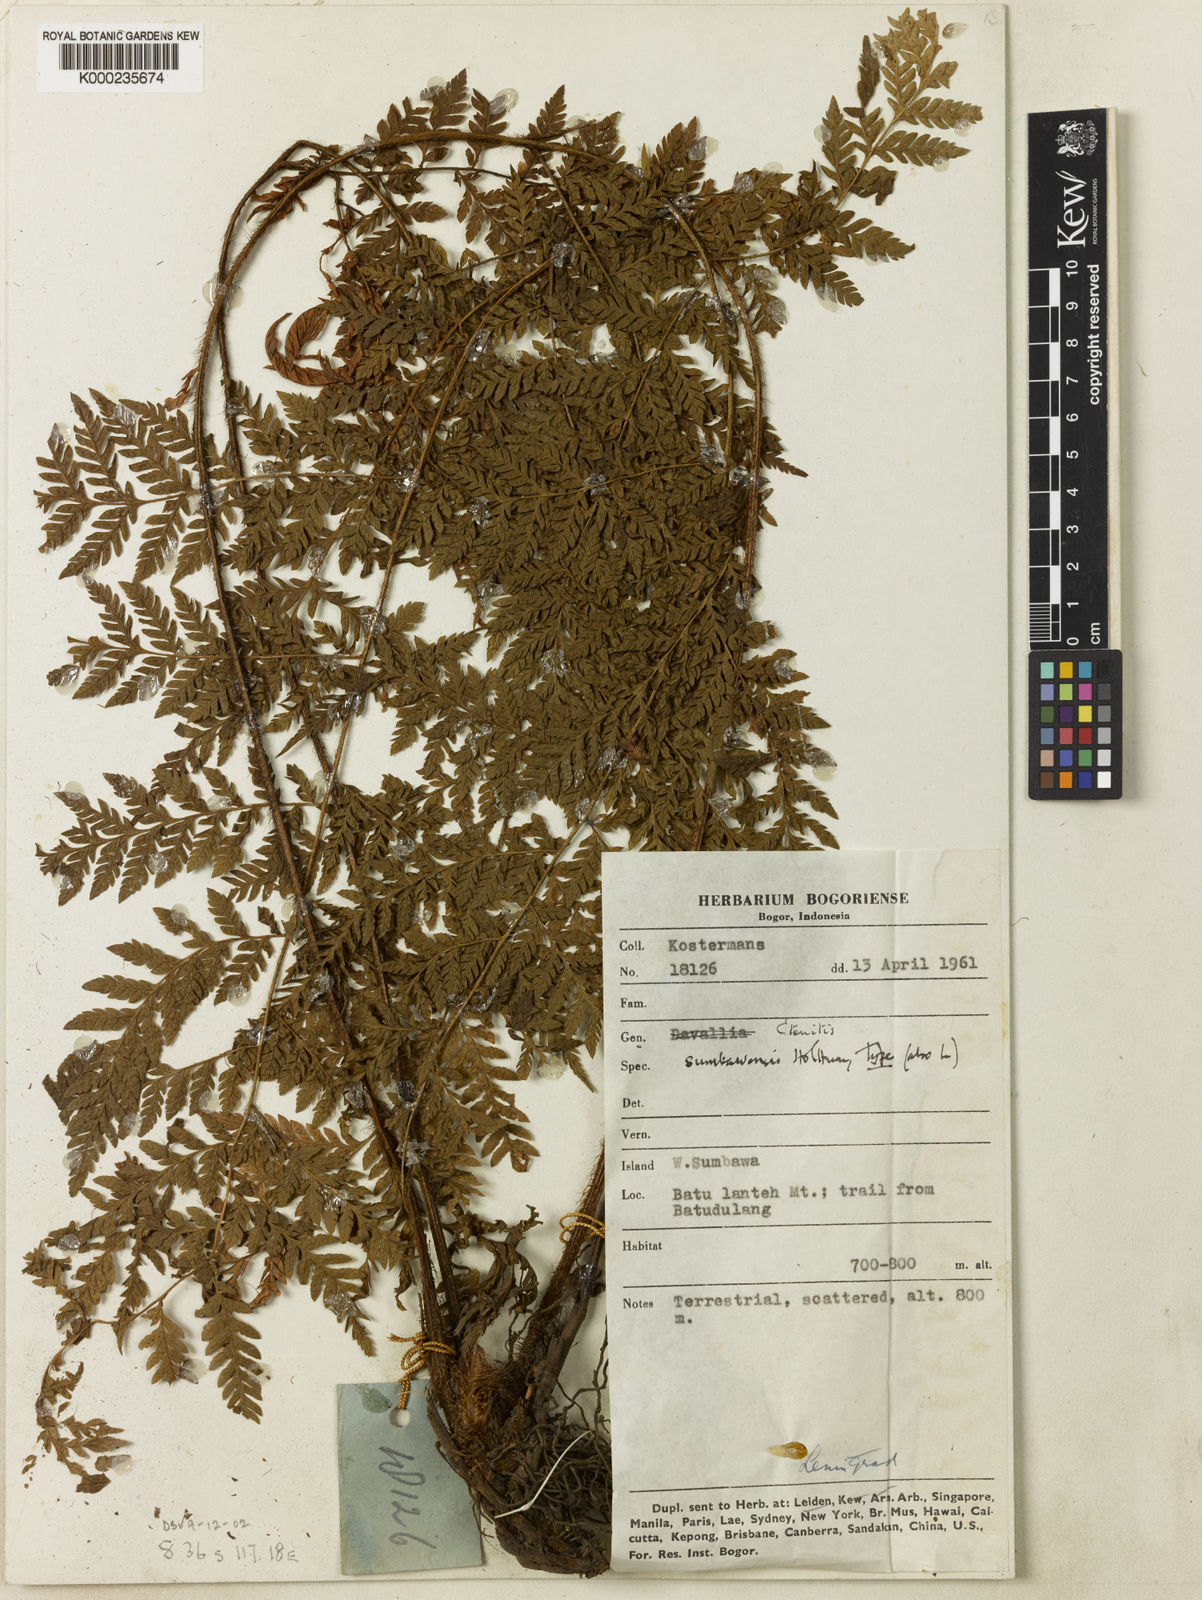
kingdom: Plantae
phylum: Tracheophyta
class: Polypodiopsida
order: Polypodiales
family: Dryopteridaceae
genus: Ctenitis
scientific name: Ctenitis sumbawensis
